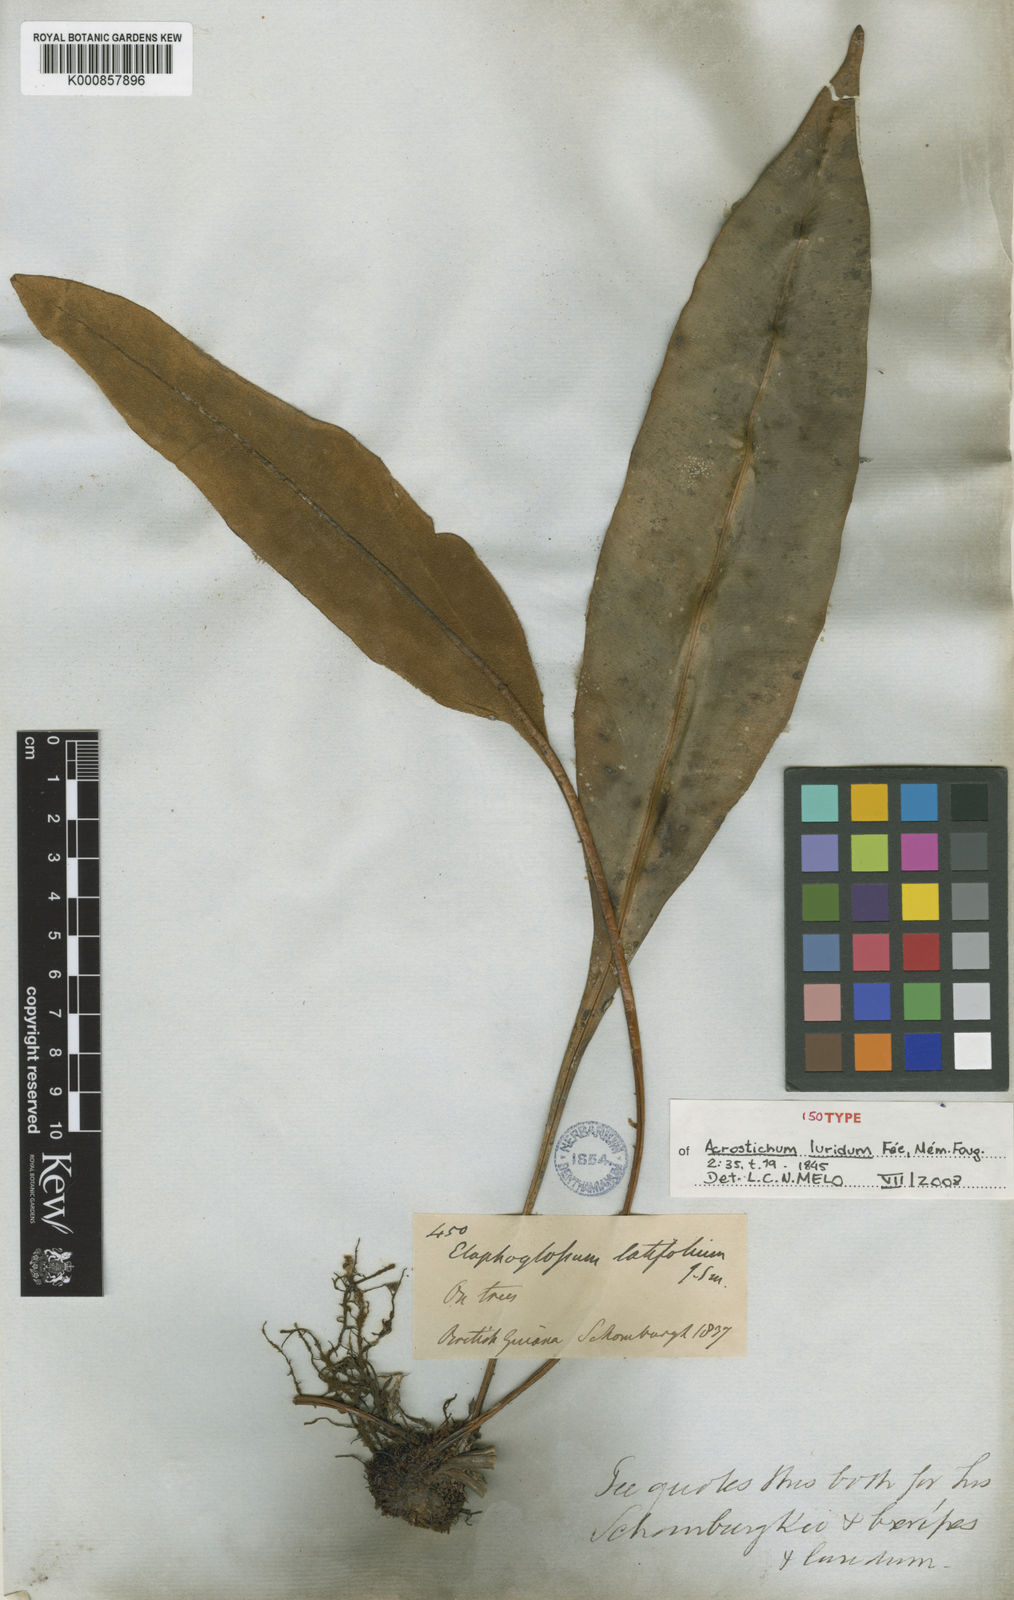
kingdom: Plantae
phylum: Tracheophyta
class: Polypodiopsida
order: Polypodiales
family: Dryopteridaceae
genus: Elaphoglossum
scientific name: Elaphoglossum
